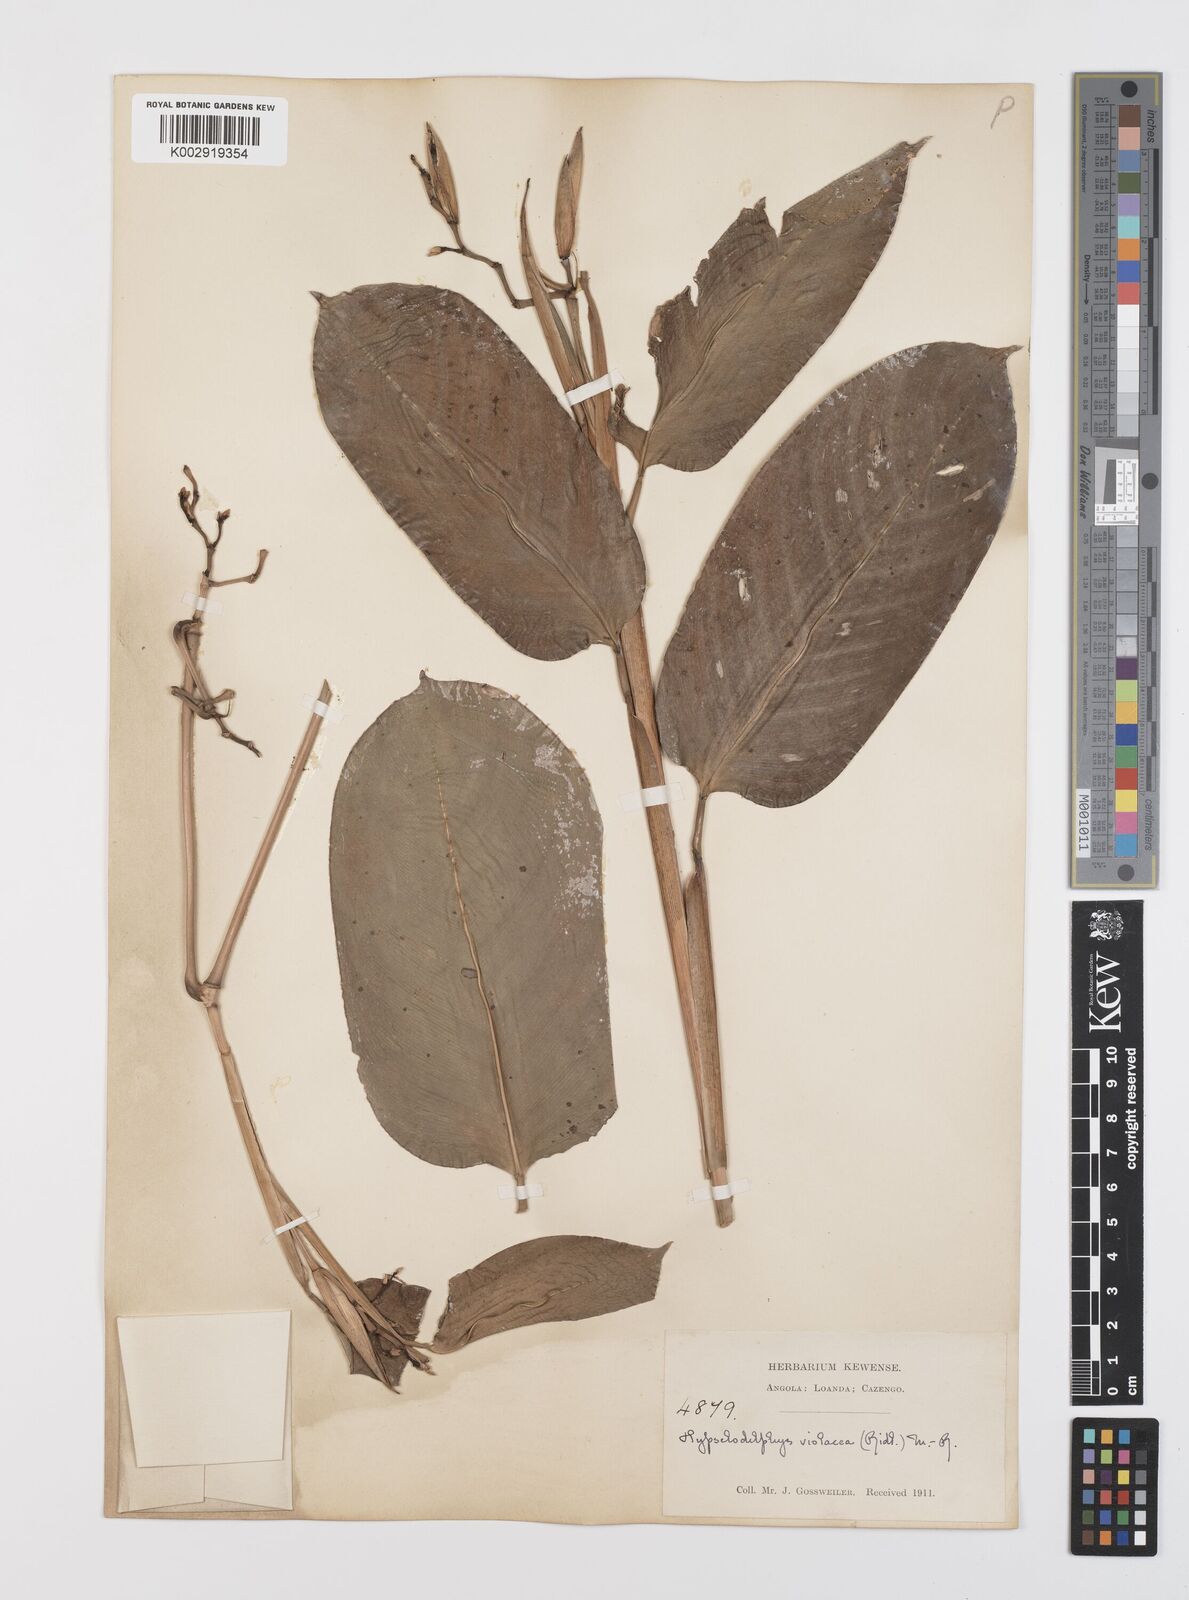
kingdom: Plantae
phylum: Tracheophyta
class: Liliopsida
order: Zingiberales
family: Marantaceae
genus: Hypselodelphys
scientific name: Hypselodelphys violacea
